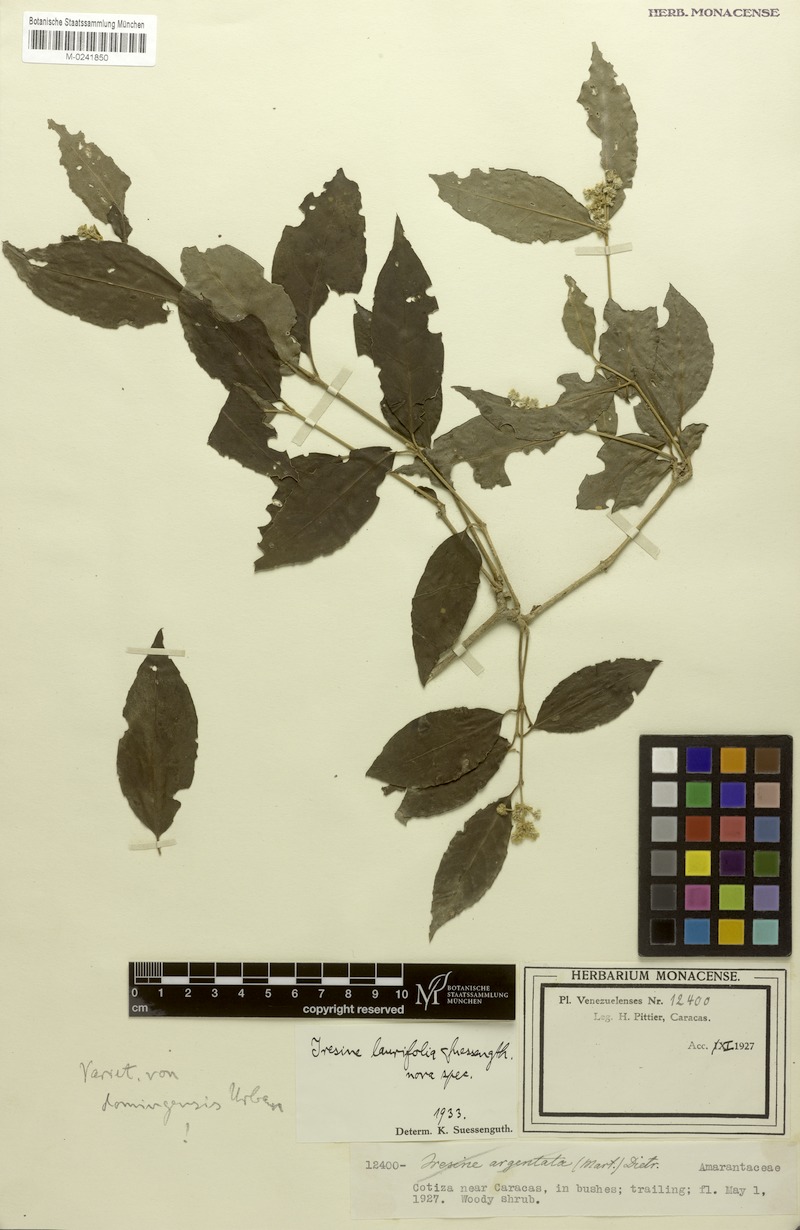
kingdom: Plantae
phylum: Tracheophyta
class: Magnoliopsida
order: Caryophyllales
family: Amaranthaceae
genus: Iresine
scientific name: Iresine laurifolia
